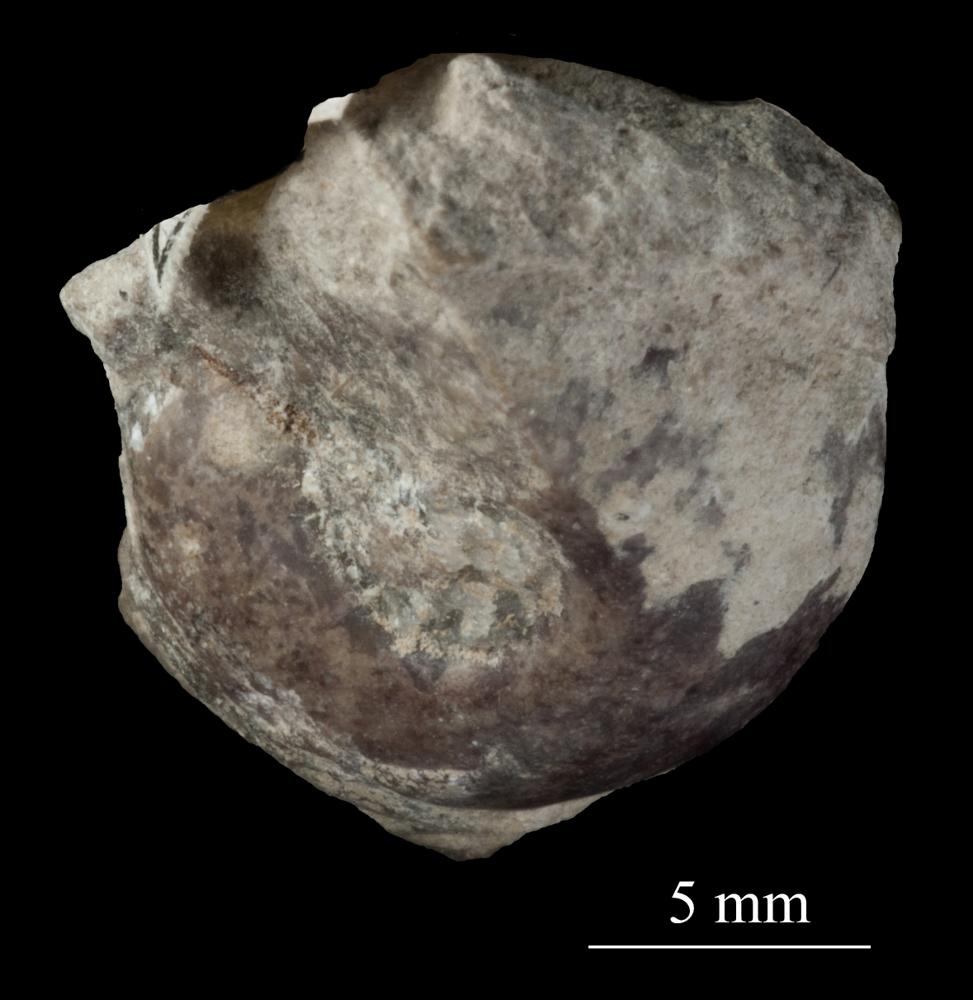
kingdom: Animalia
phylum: Mollusca
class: Gastropoda
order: Neogastropoda
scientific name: Neogastropoda
